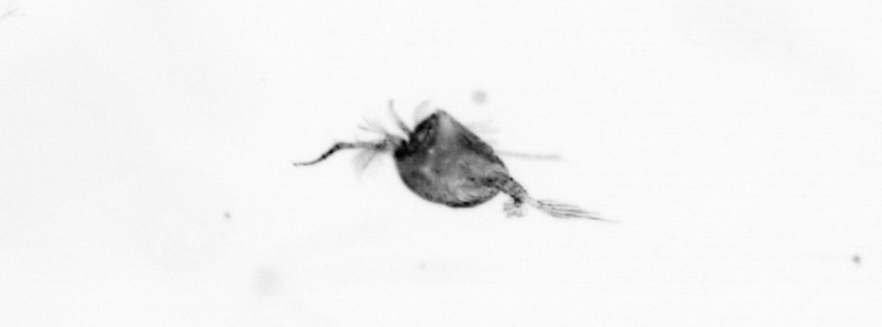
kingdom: Animalia
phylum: Arthropoda
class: Copepoda
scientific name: Copepoda
